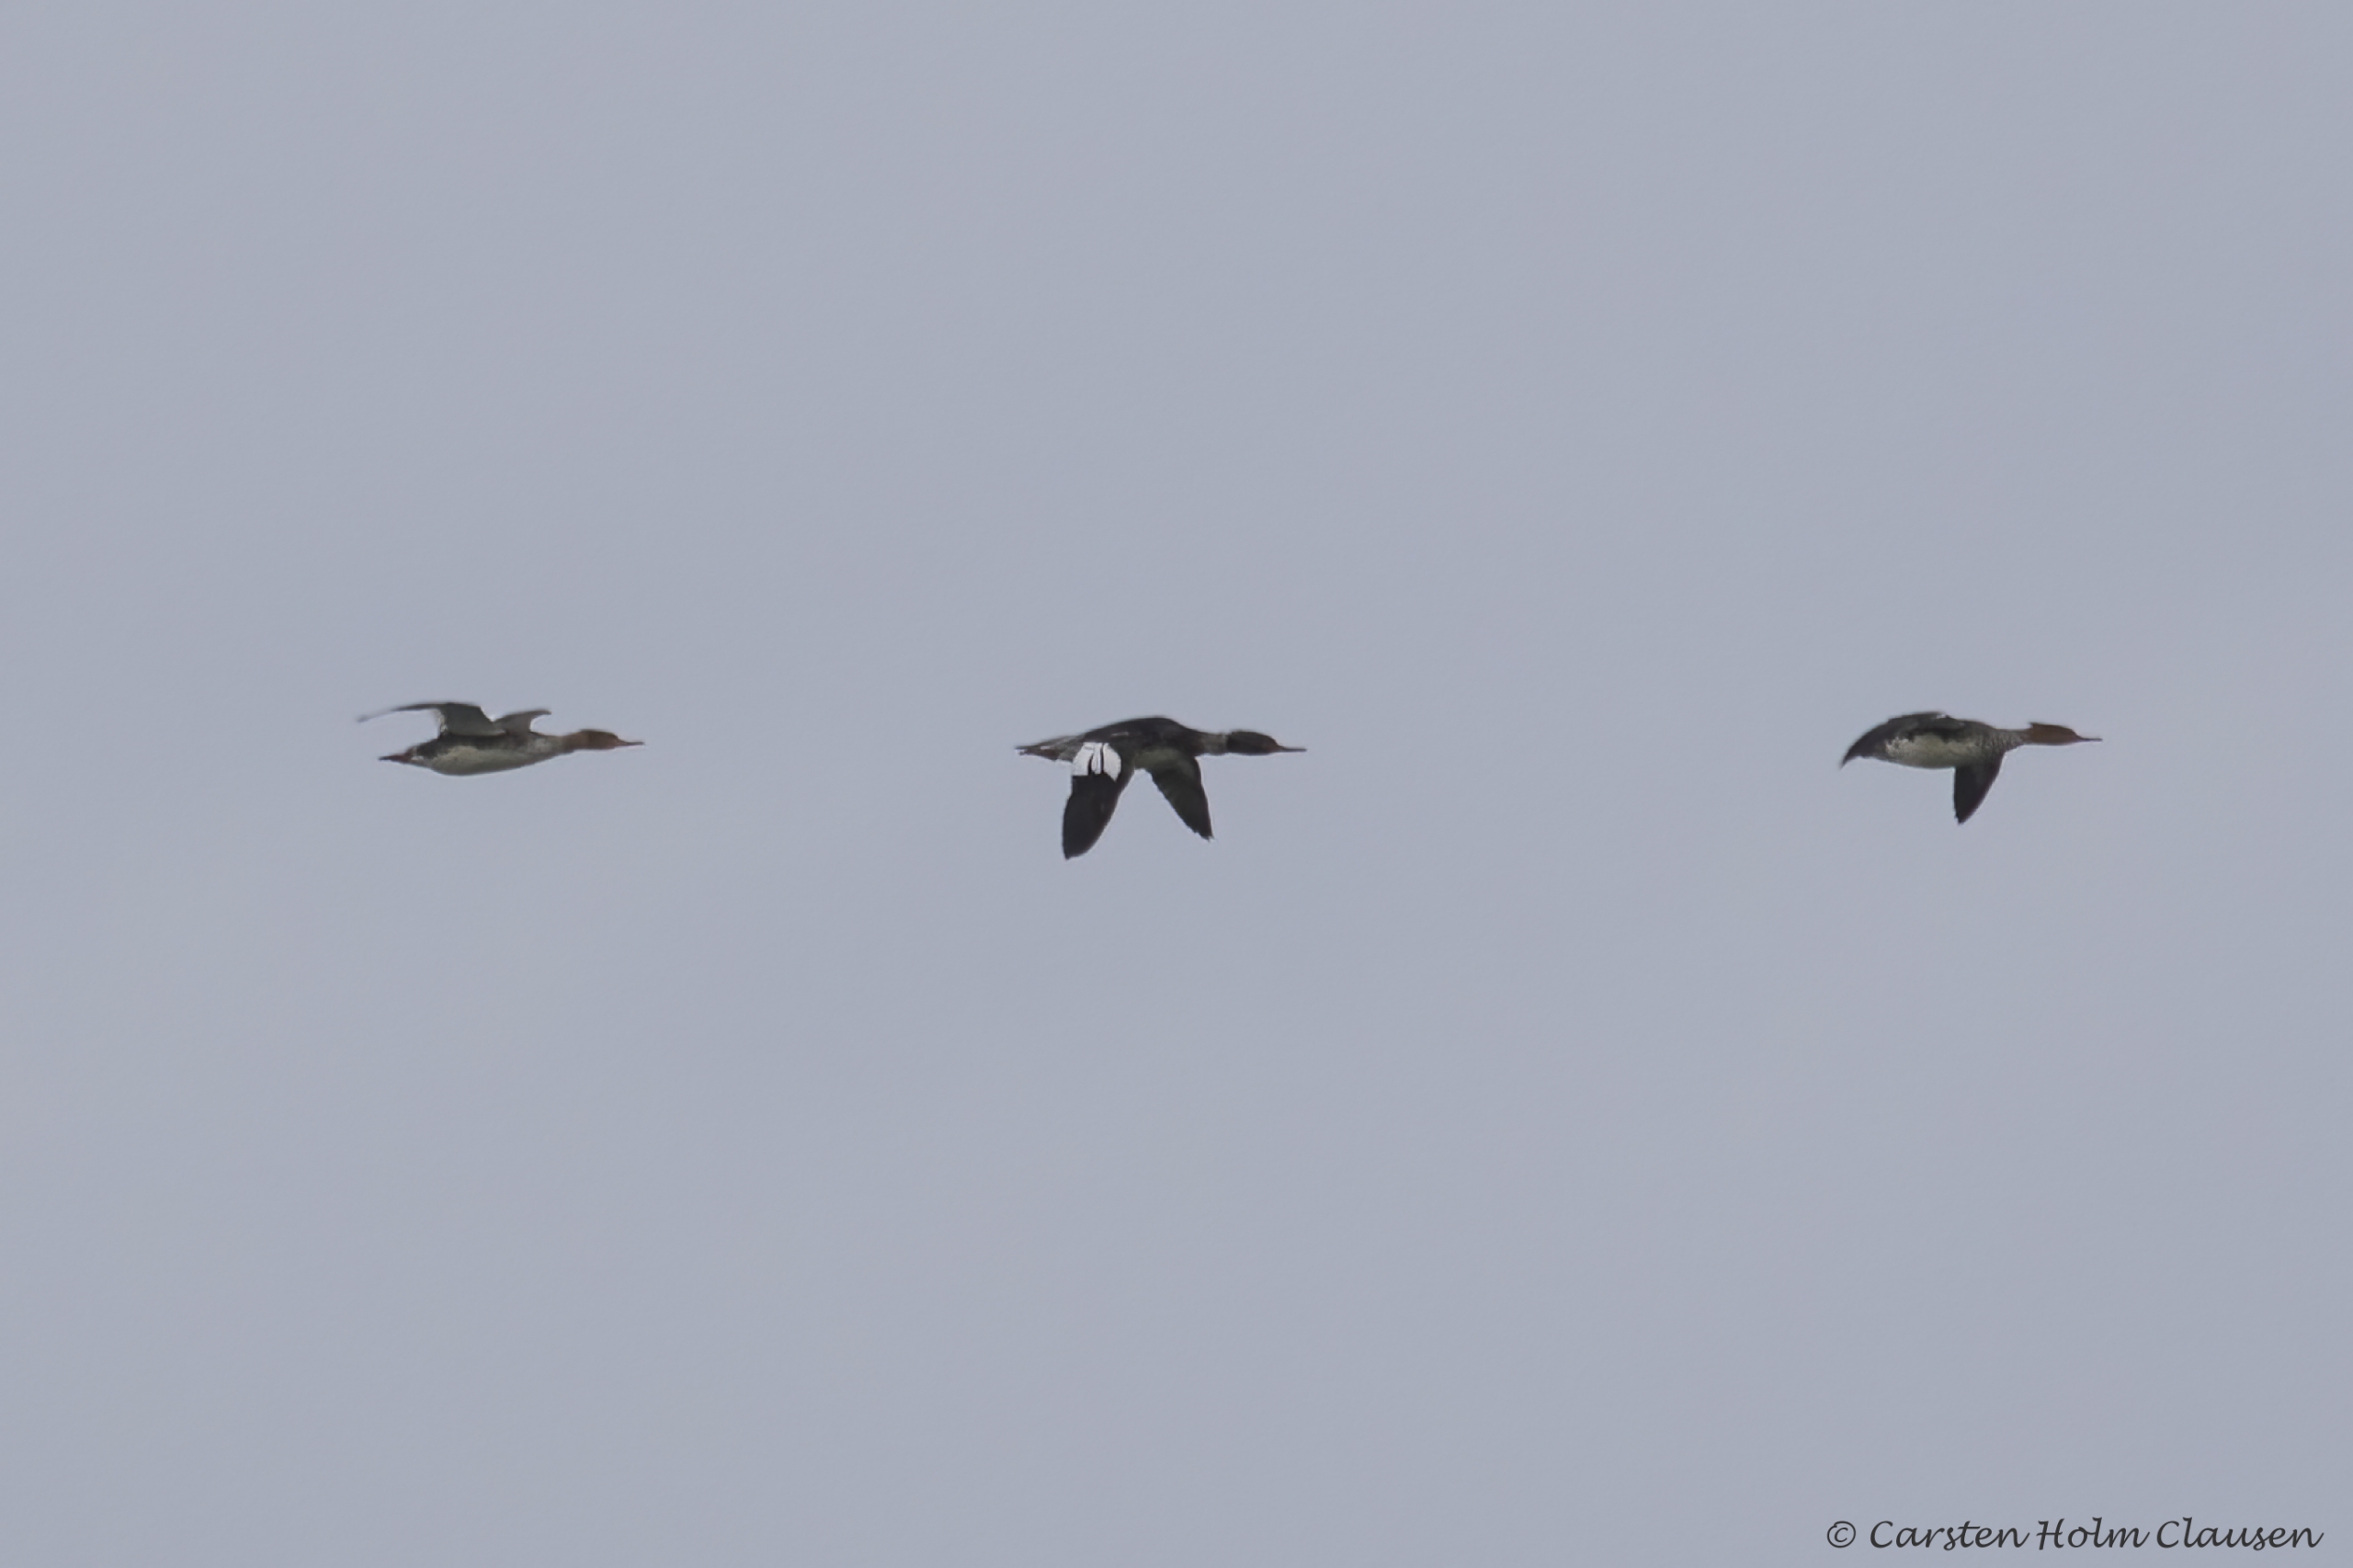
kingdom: Animalia
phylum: Chordata
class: Aves
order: Anseriformes
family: Anatidae
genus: Mergus
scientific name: Mergus serrator
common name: Toppet skallesluger
